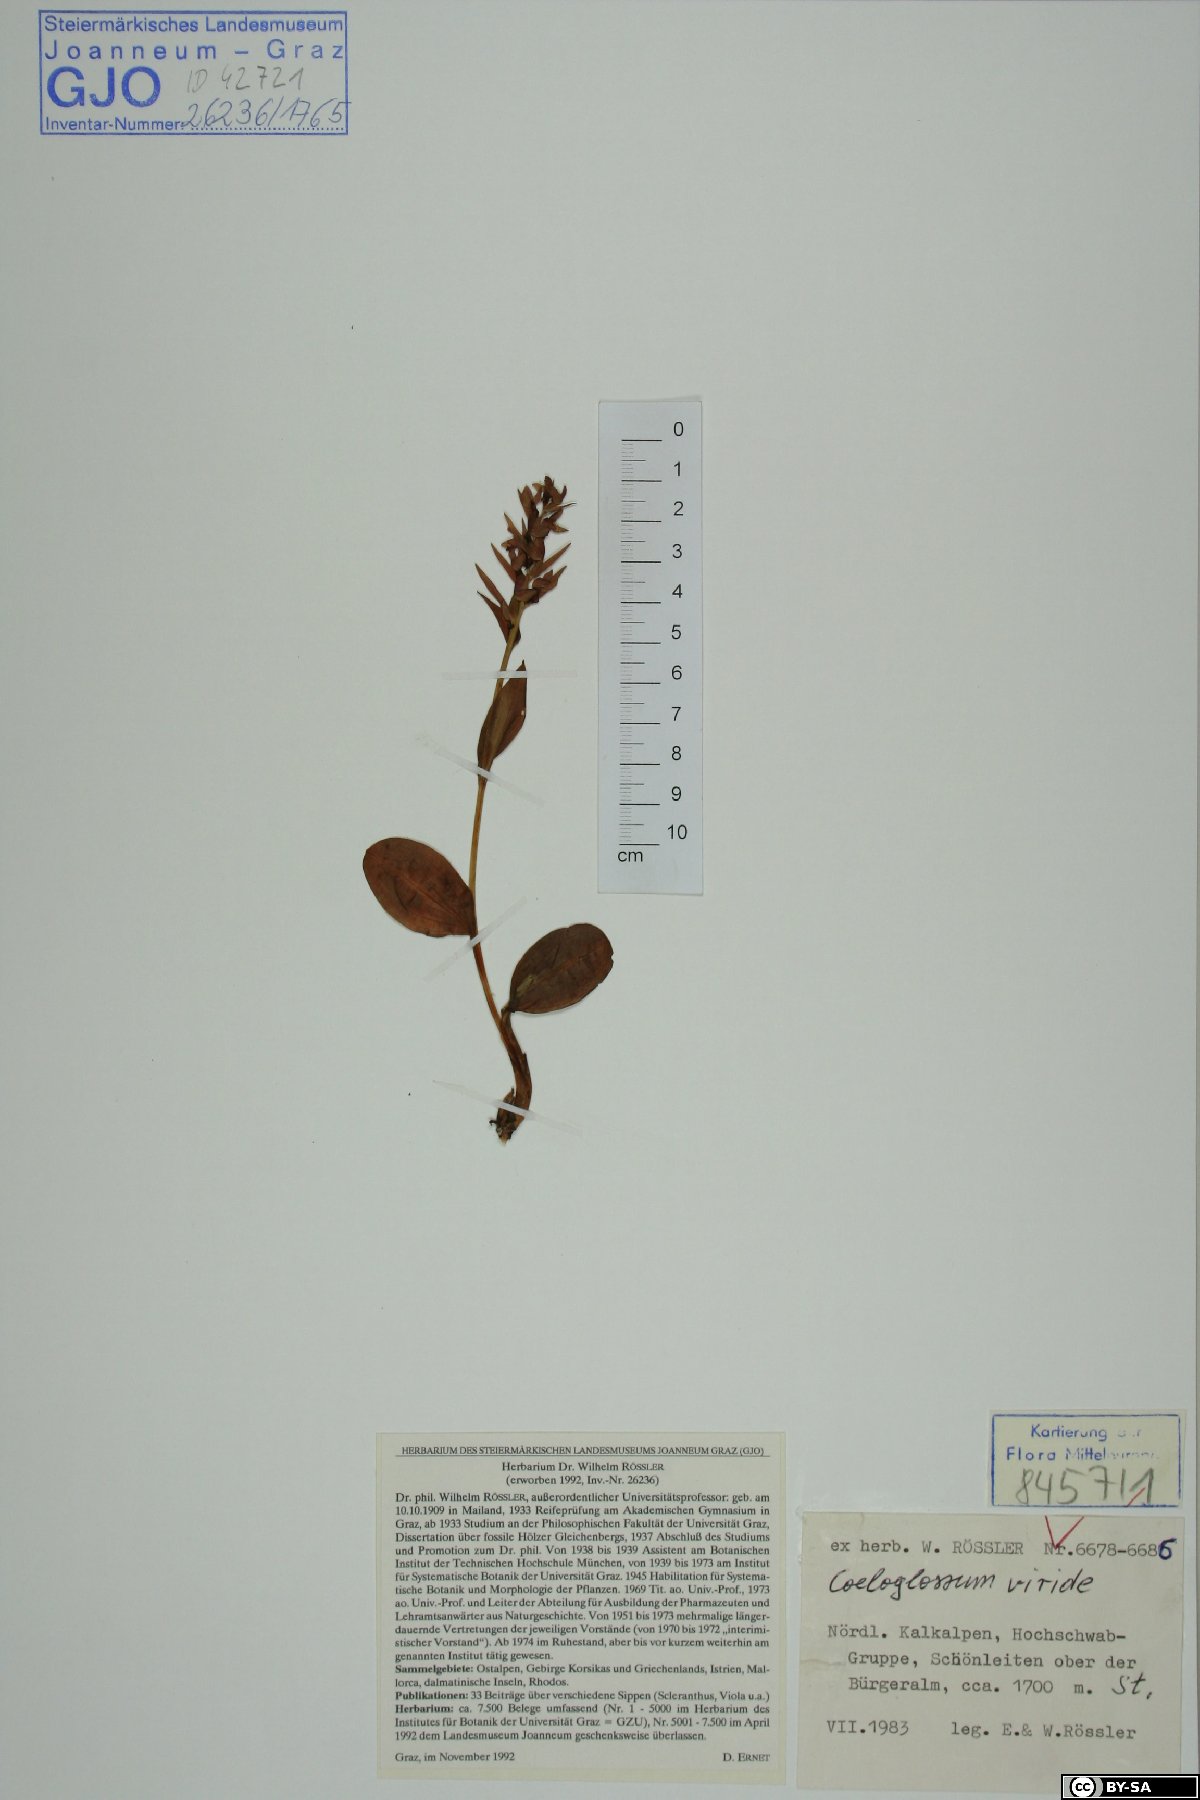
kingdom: Plantae
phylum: Tracheophyta
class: Liliopsida
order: Asparagales
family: Orchidaceae
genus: Dactylorhiza
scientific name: Dactylorhiza viridis
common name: Longbract frog orchid
